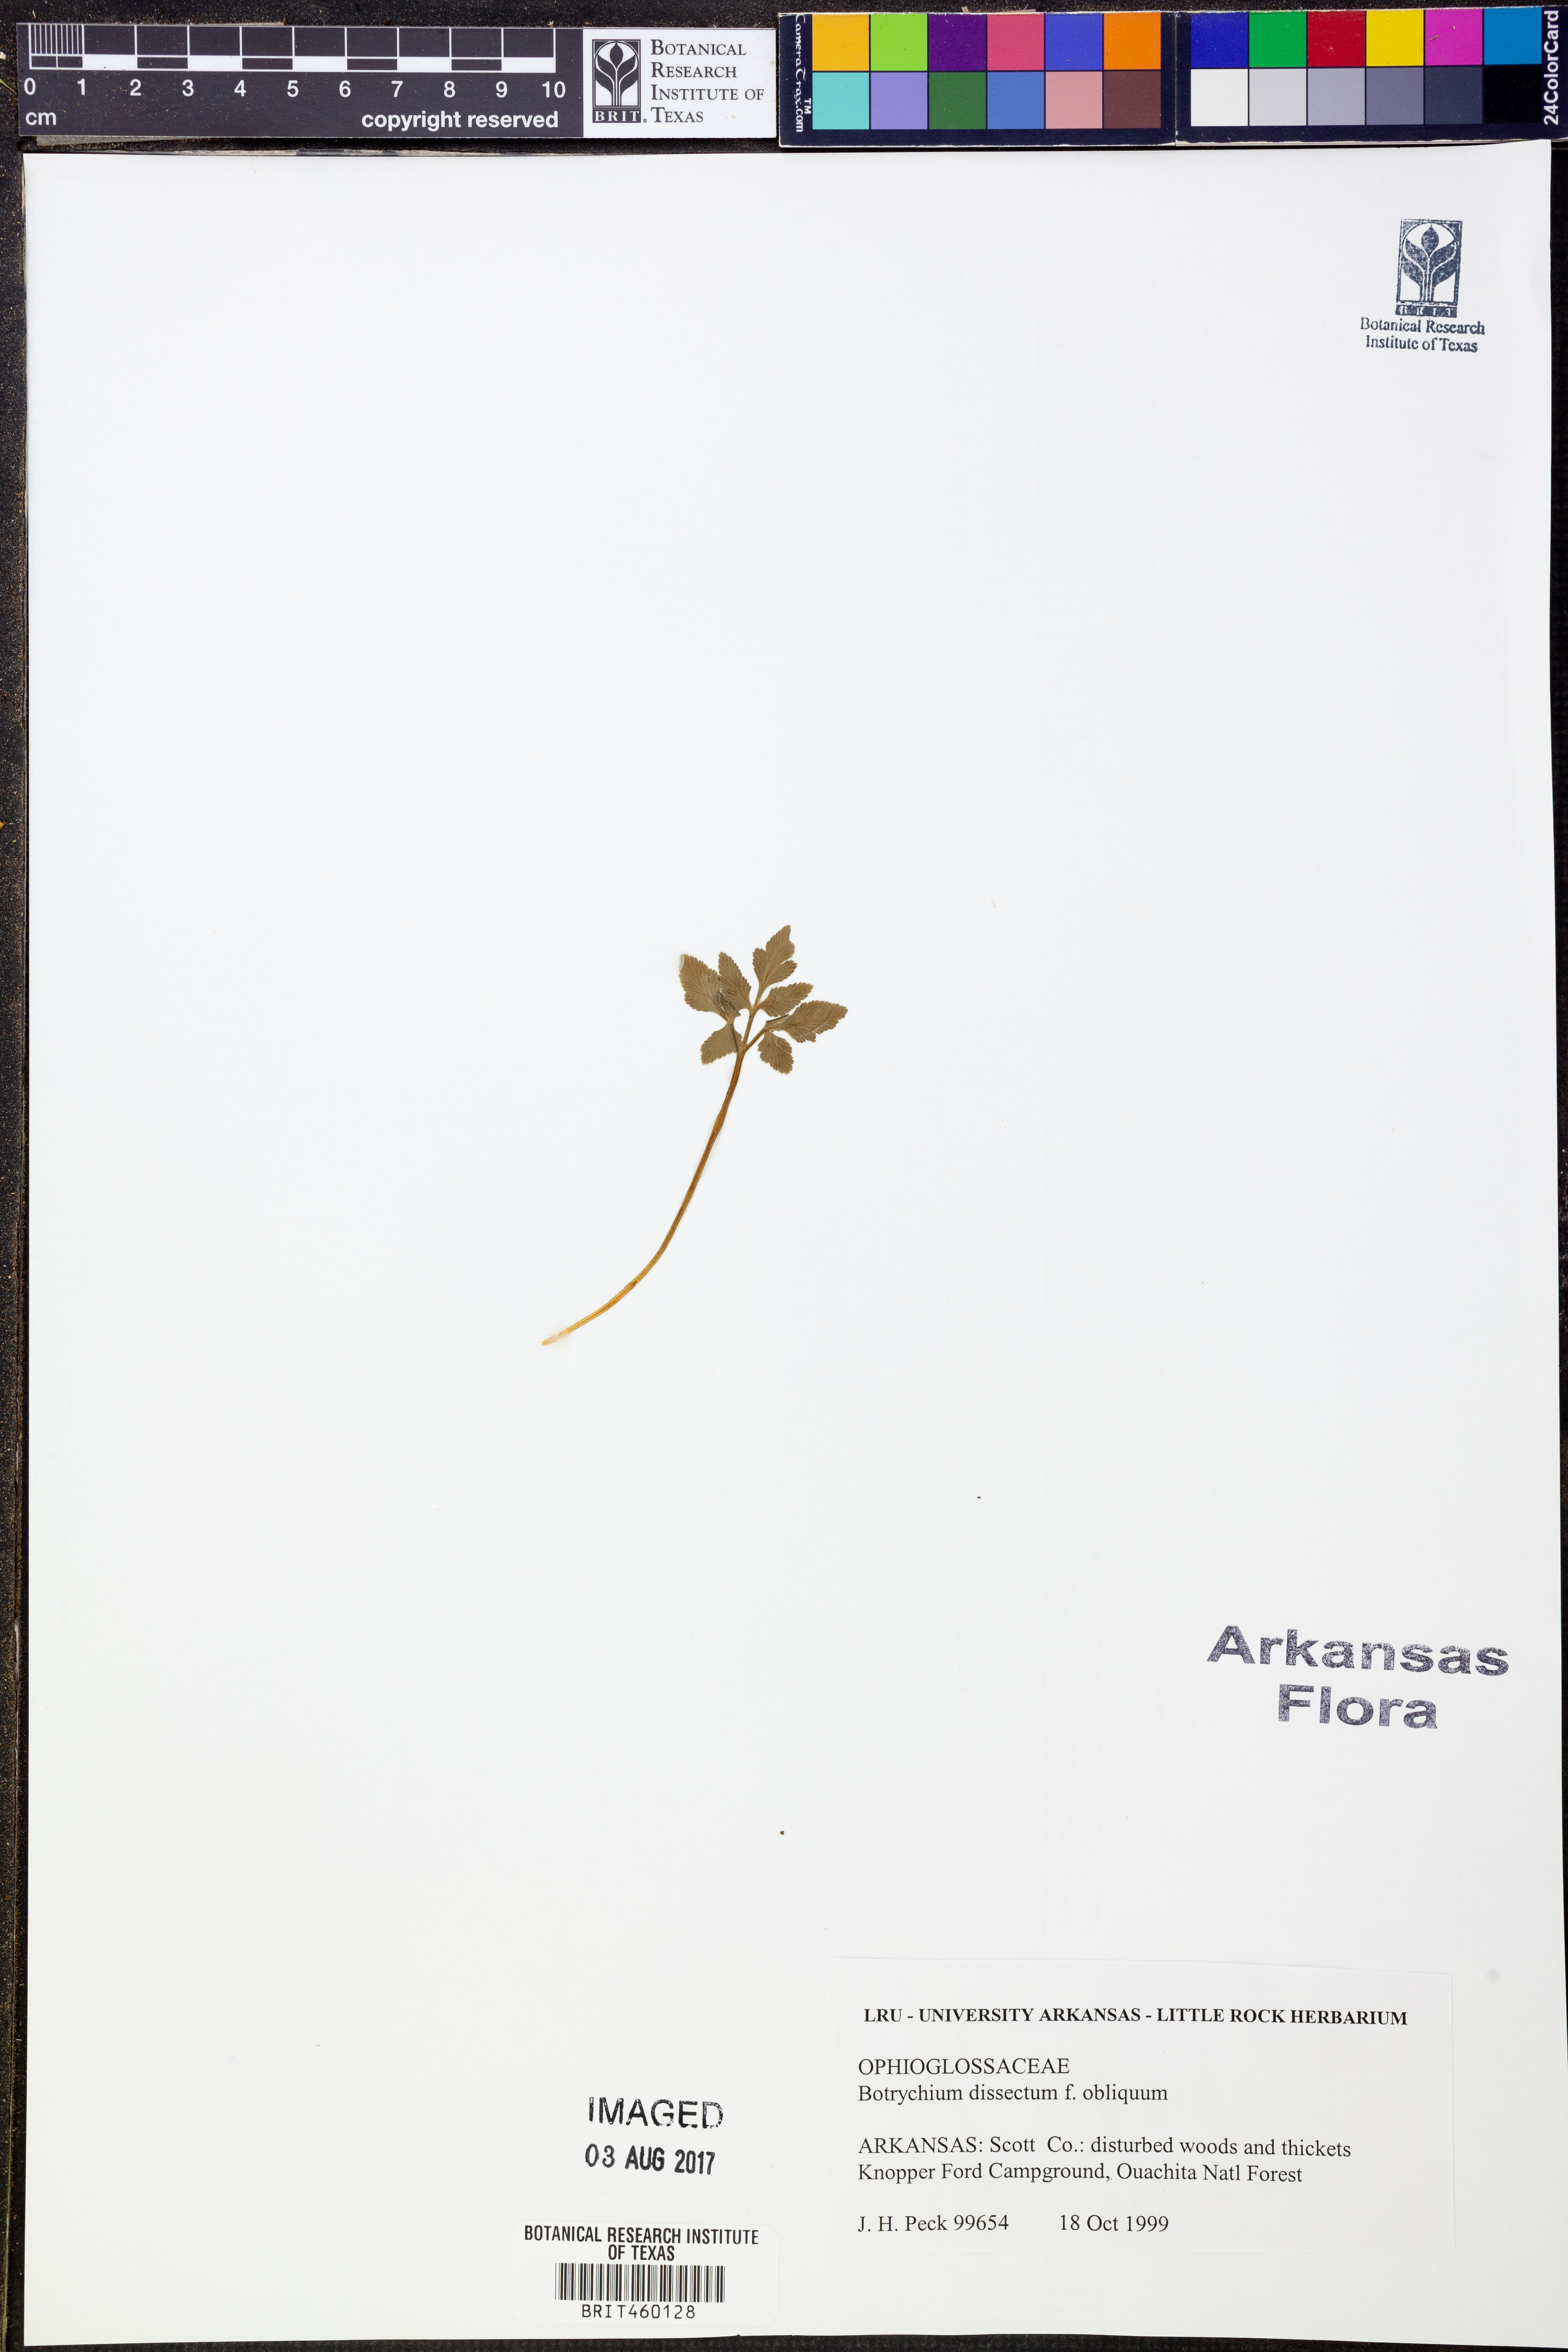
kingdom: Plantae
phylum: Tracheophyta
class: Polypodiopsida
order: Ophioglossales
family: Ophioglossaceae
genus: Sceptridium
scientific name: Sceptridium dissectum
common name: Cut-leaved grapefern
